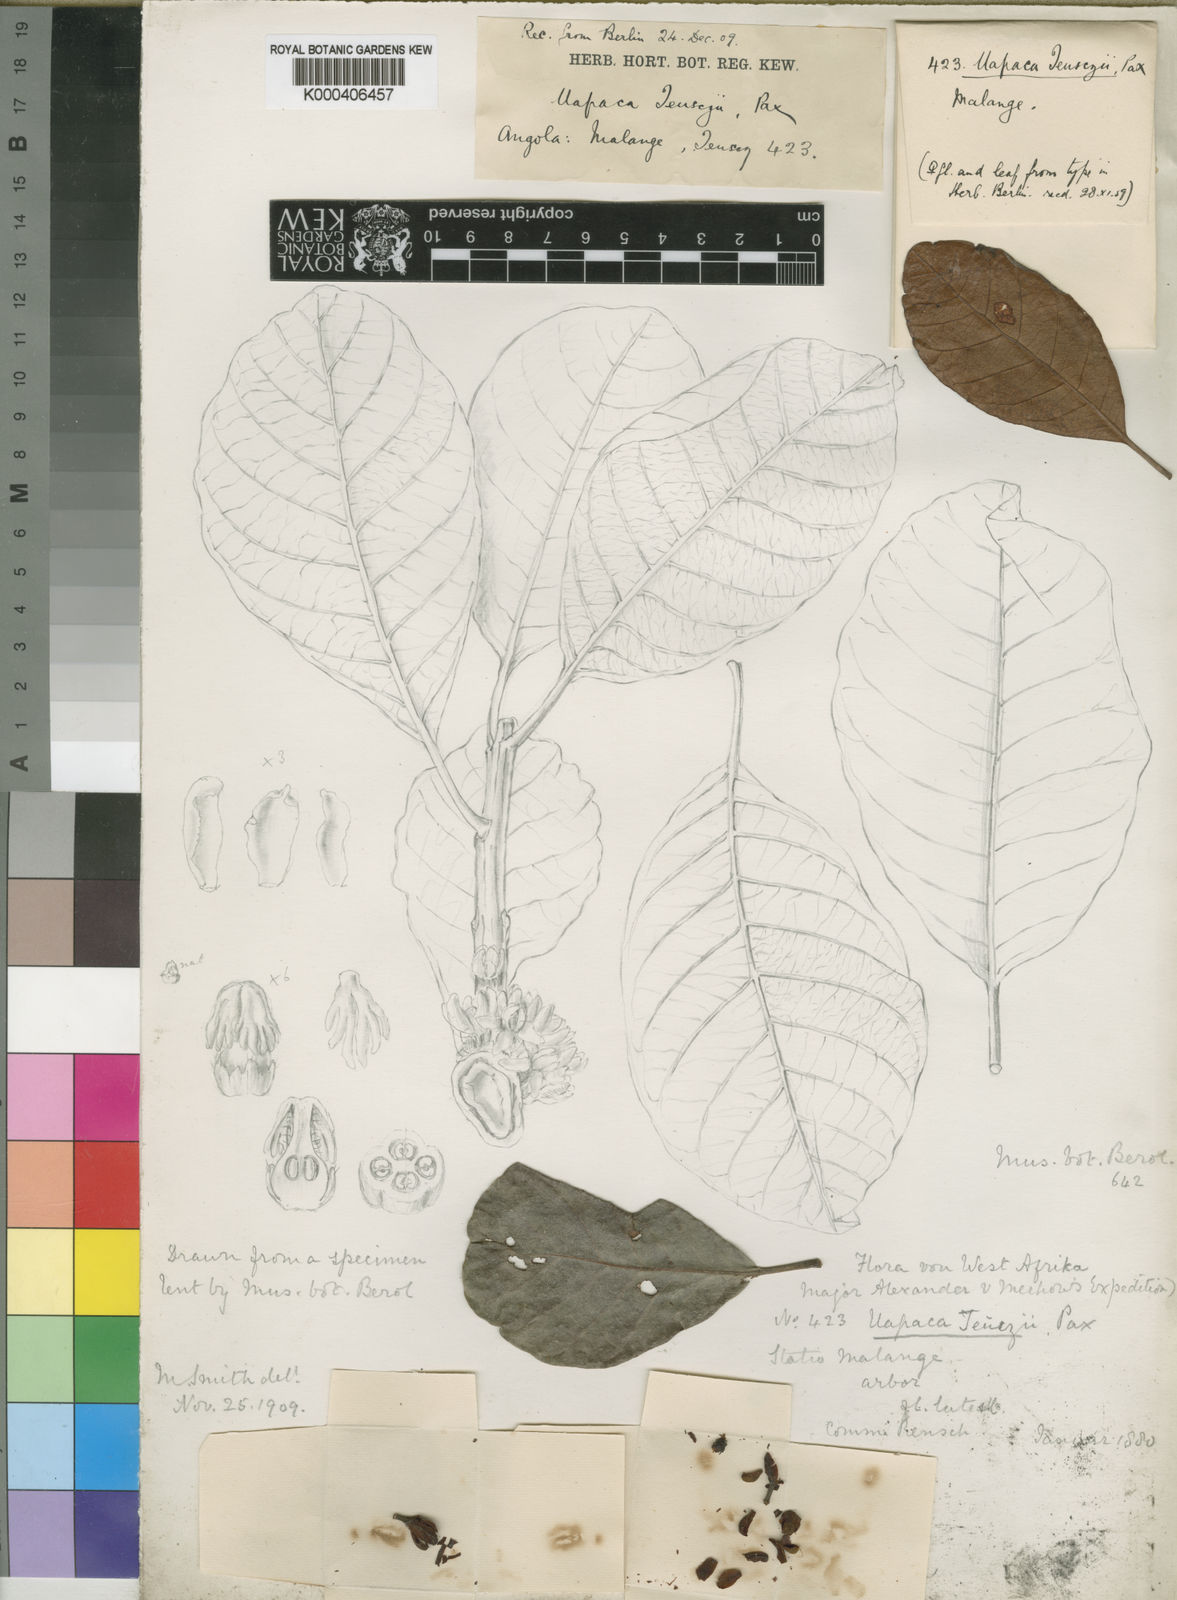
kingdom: Plantae
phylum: Tracheophyta
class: Magnoliopsida
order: Malpighiales
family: Phyllanthaceae
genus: Uapaca
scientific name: Uapaca teusczii
